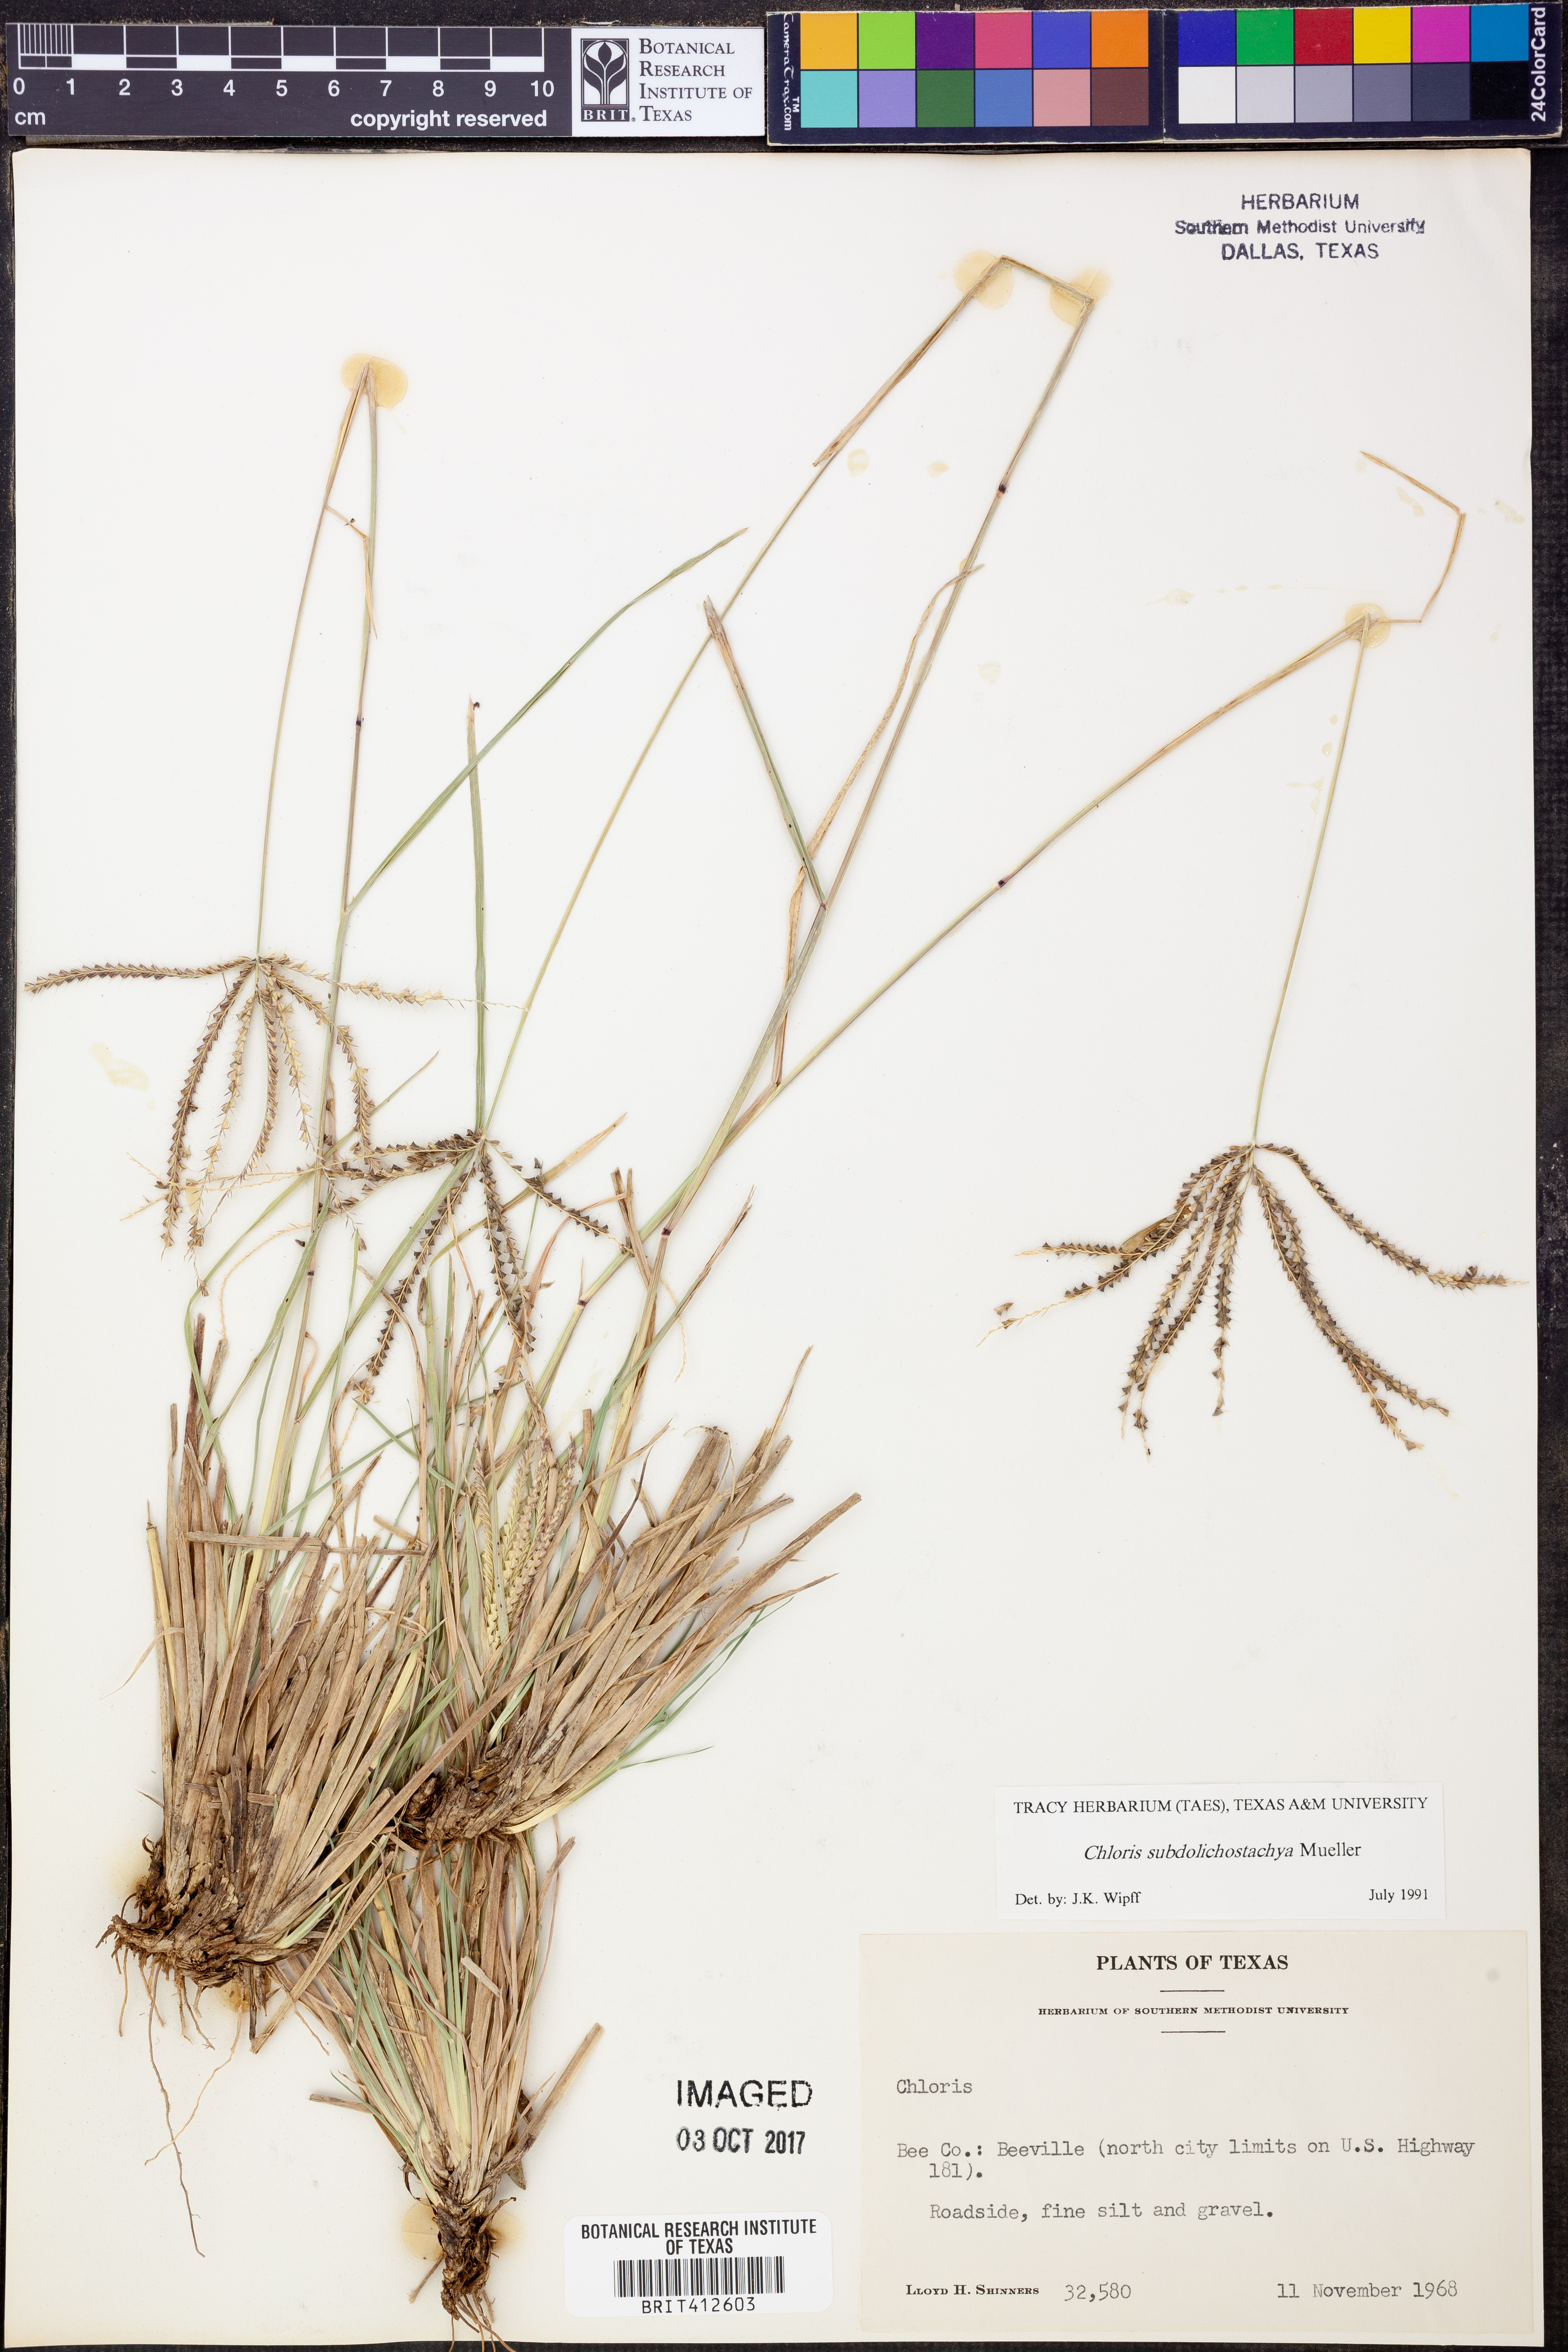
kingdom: Plantae
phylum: Tracheophyta
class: Liliopsida
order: Poales
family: Poaceae
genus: Chloris
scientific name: Chloris subdolichostachya
